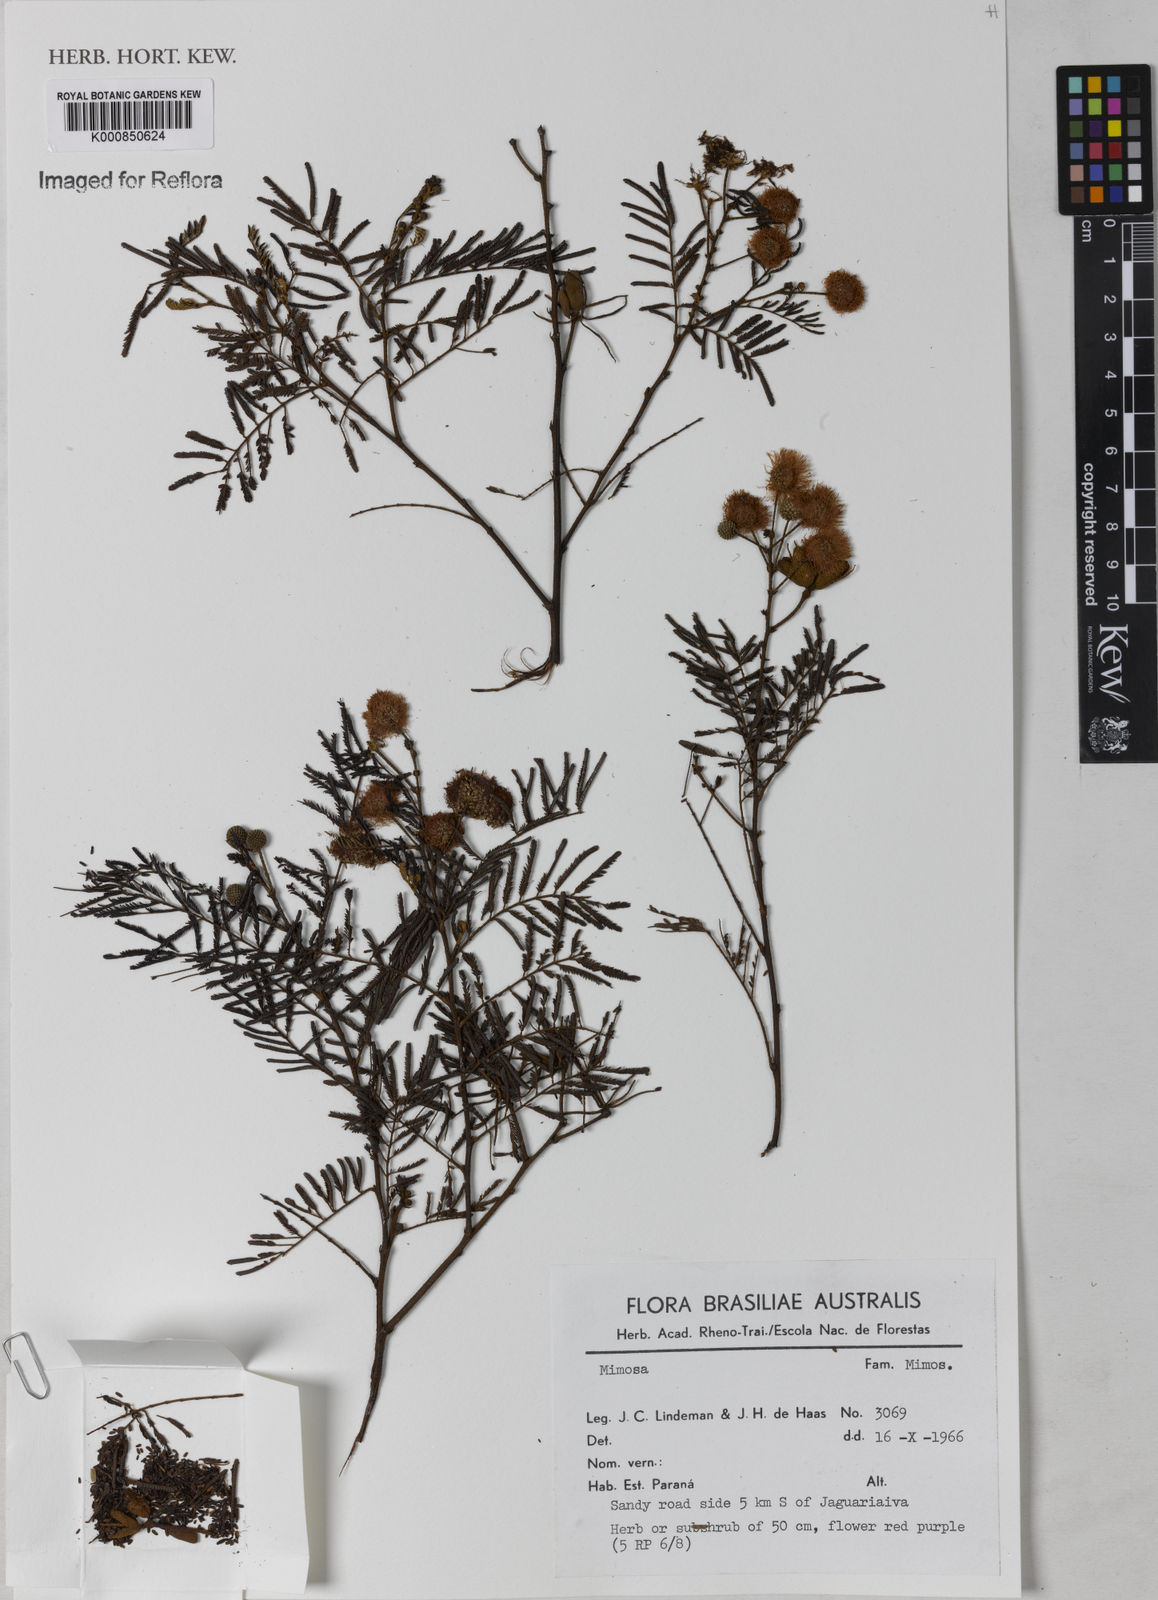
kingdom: Plantae
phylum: Tracheophyta
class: Magnoliopsida
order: Fabales
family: Fabaceae
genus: Mimosa
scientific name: Mimosa
